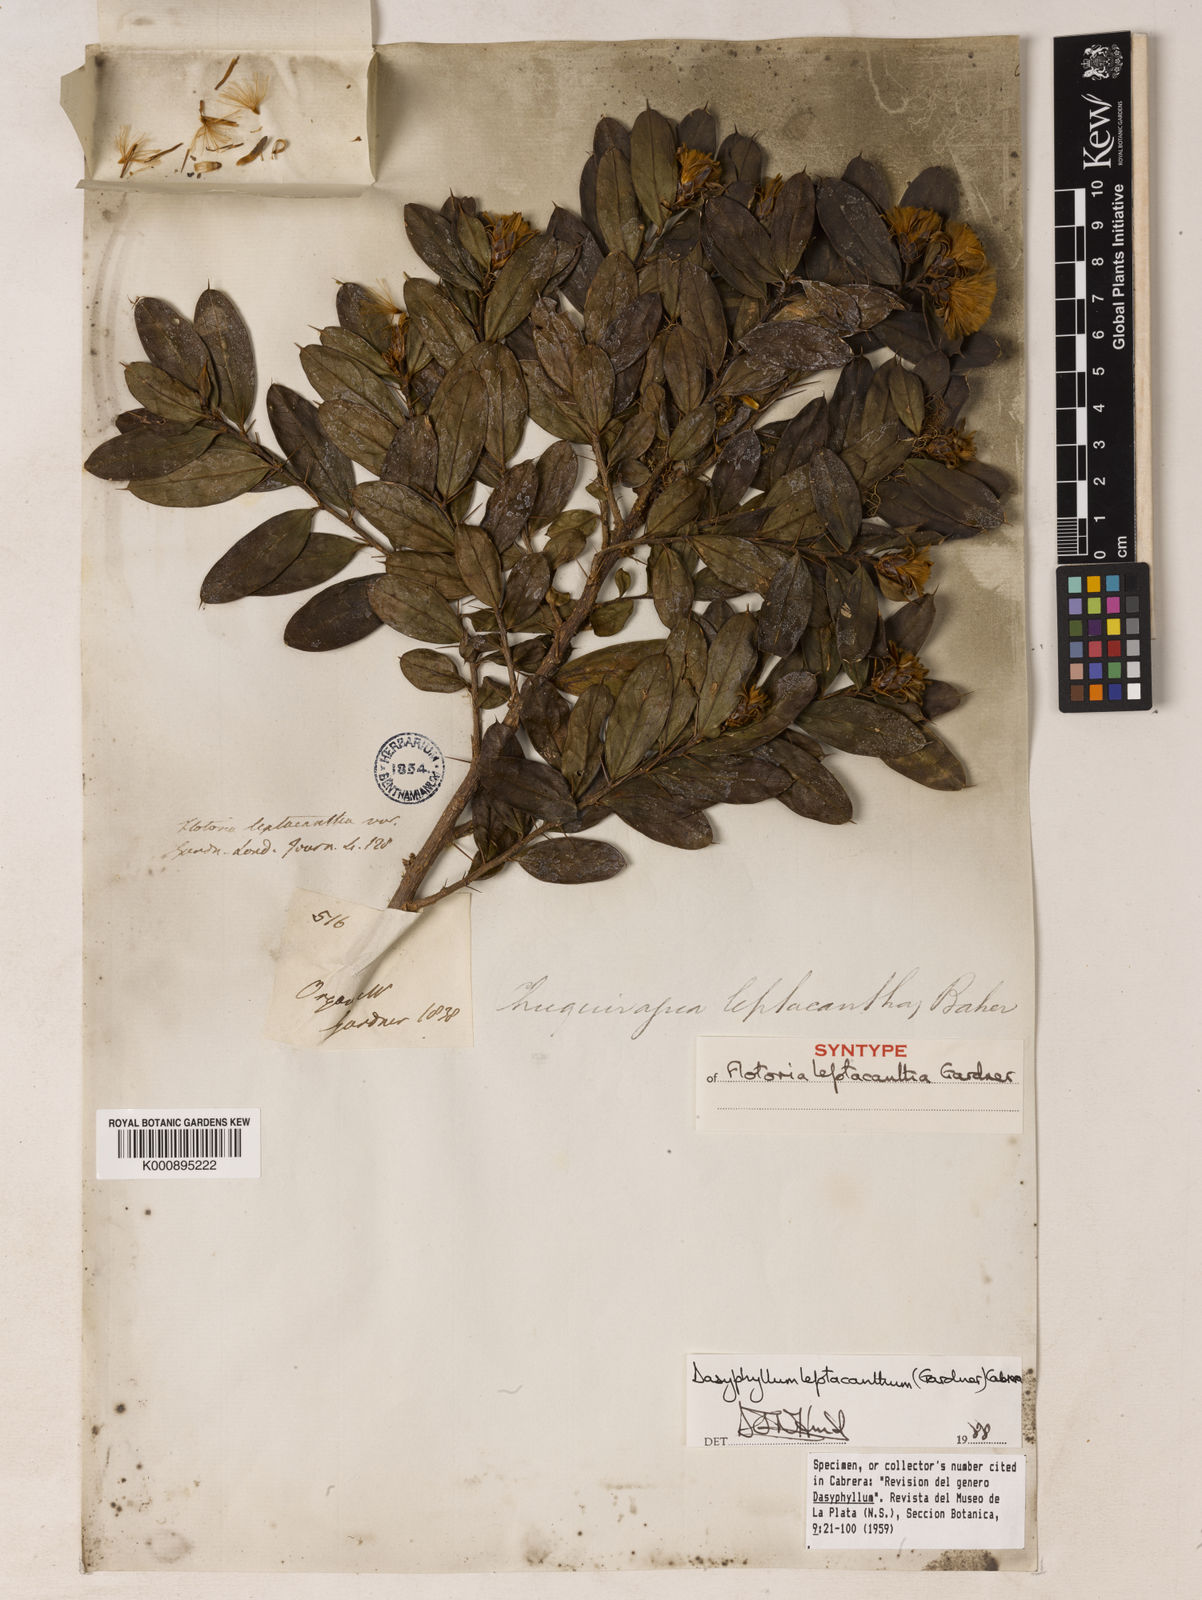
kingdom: Plantae
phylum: Tracheophyta
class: Magnoliopsida
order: Asterales
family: Asteraceae
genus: Dasyphyllum
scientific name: Dasyphyllum leptacanthum
